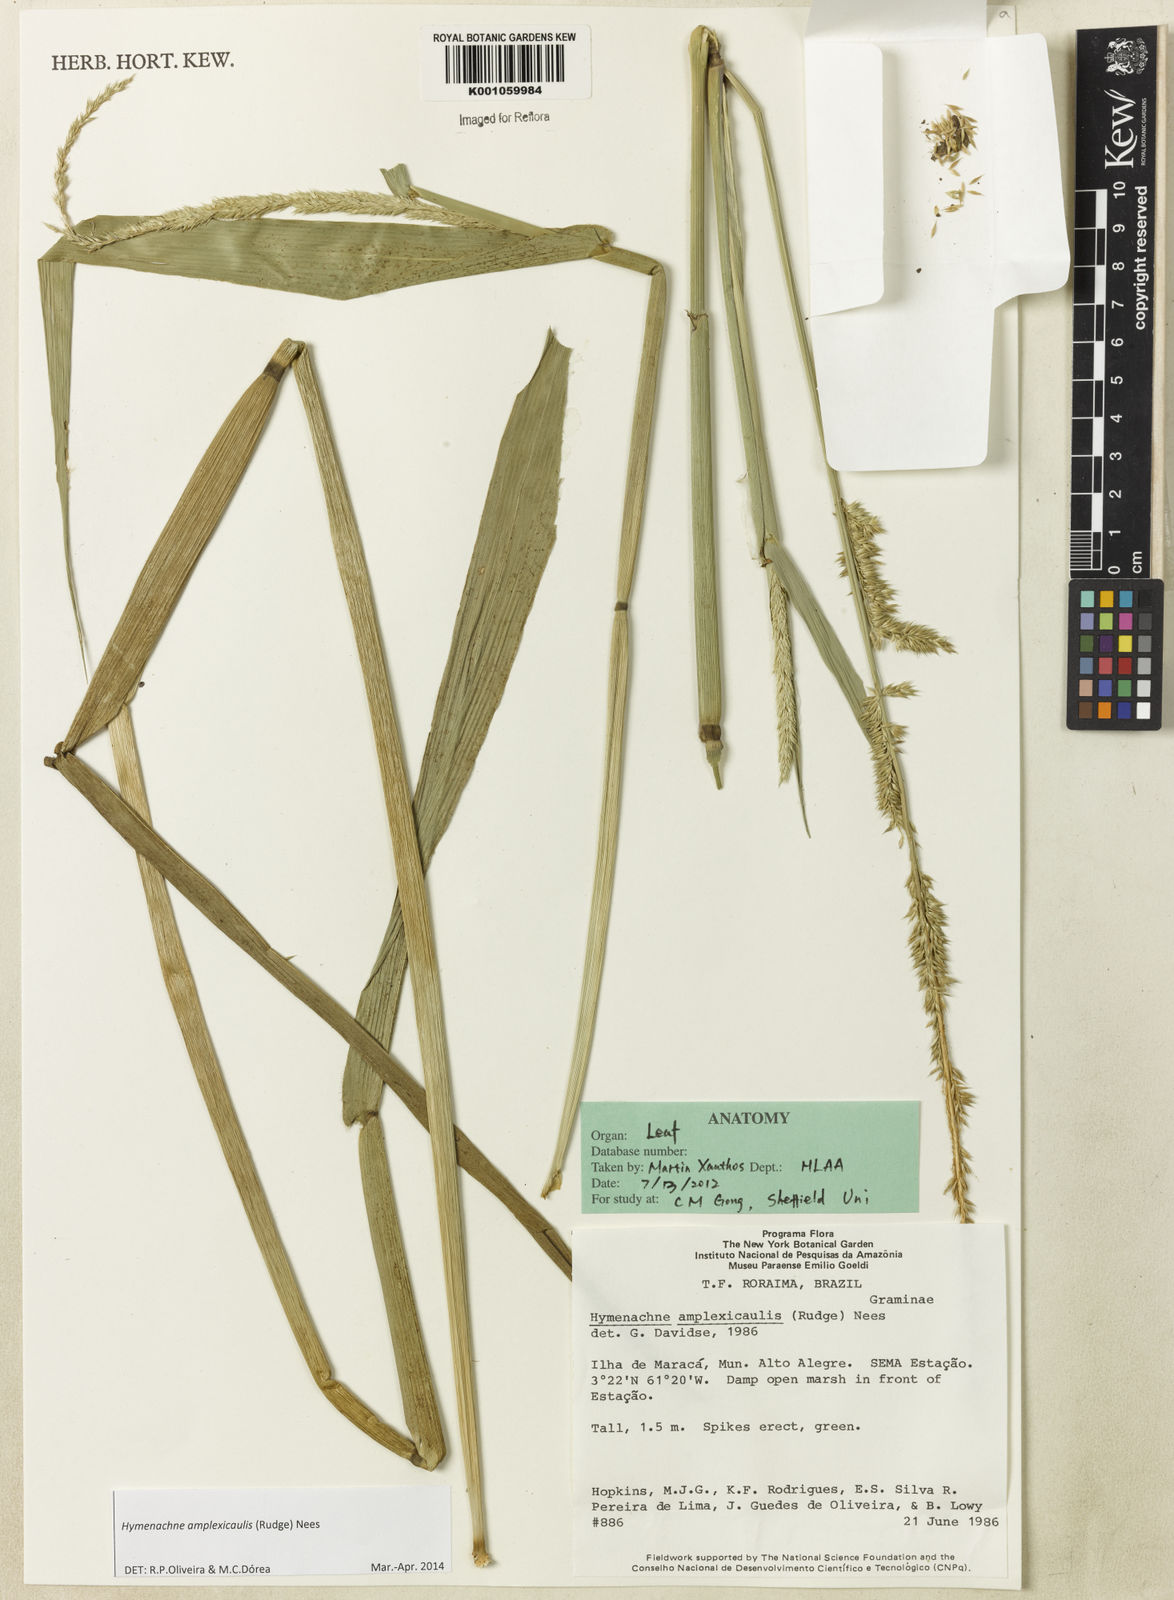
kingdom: Plantae
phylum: Tracheophyta
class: Liliopsida
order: Poales
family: Poaceae
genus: Hymenachne
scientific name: Hymenachne amplexicaulis
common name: Olive hymenachne
